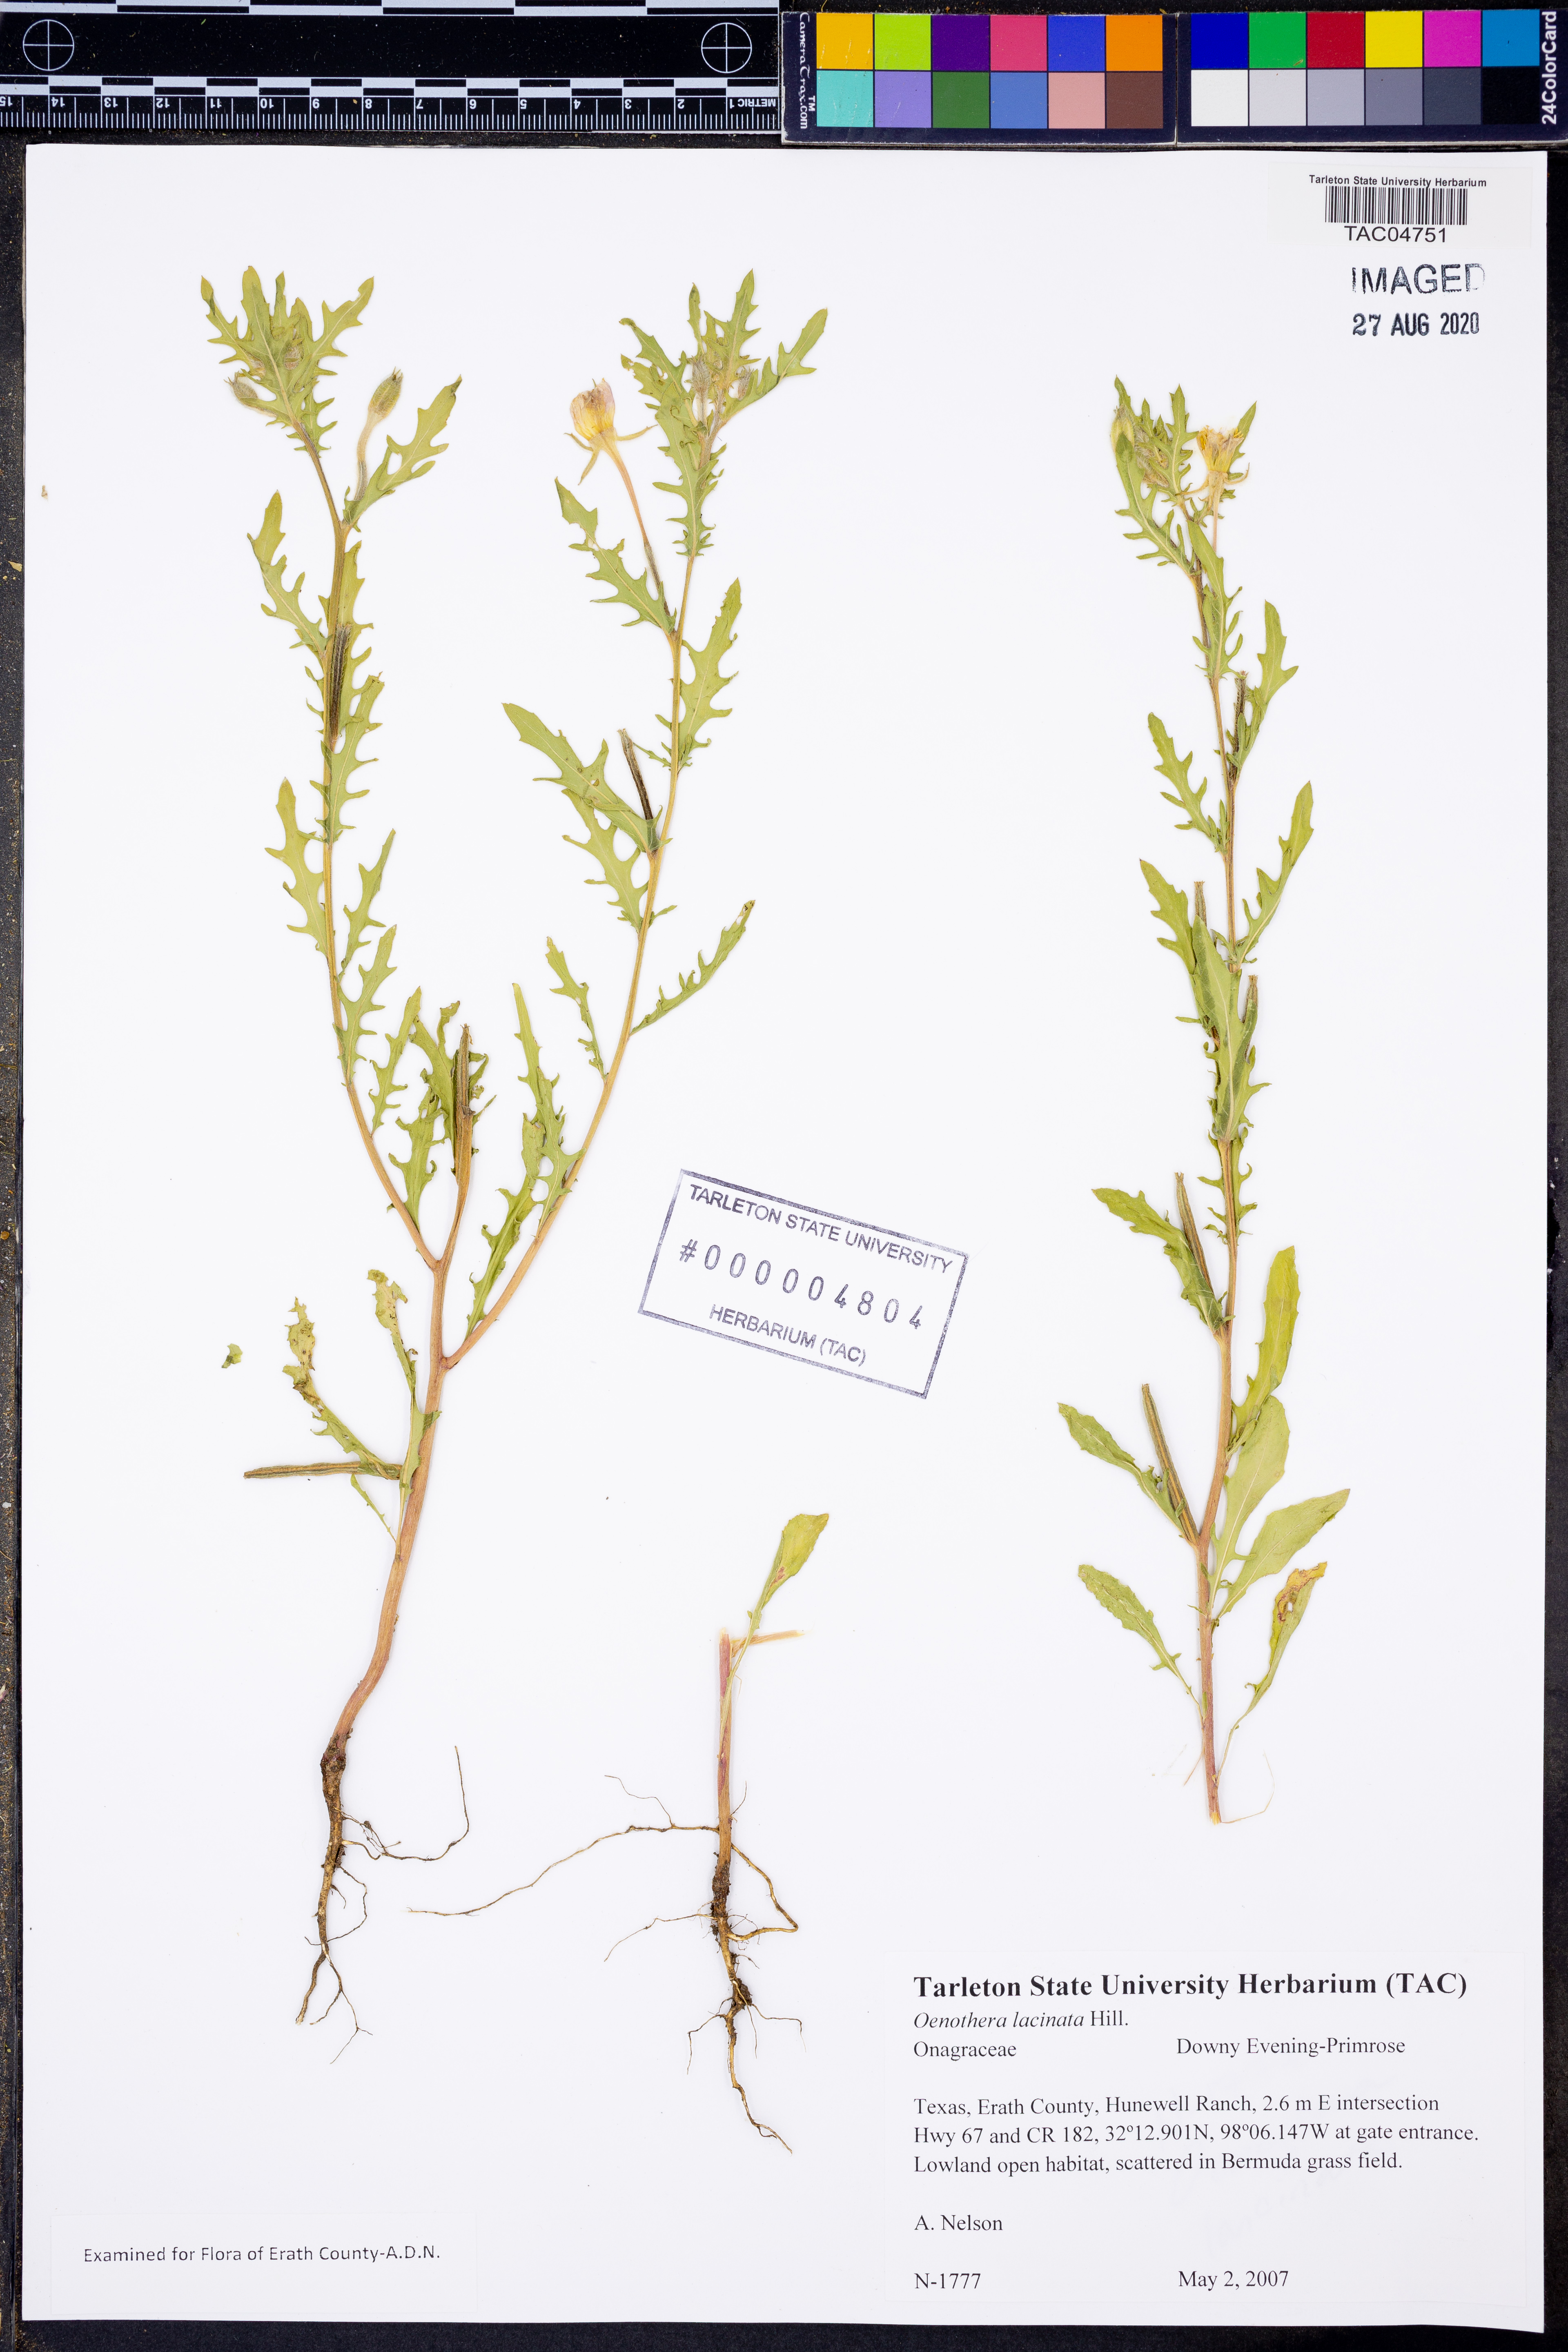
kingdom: Plantae
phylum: Tracheophyta
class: Magnoliopsida
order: Myrtales
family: Onagraceae
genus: Oenothera
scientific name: Oenothera laciniata
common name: Cut-leaved evening-primrose
